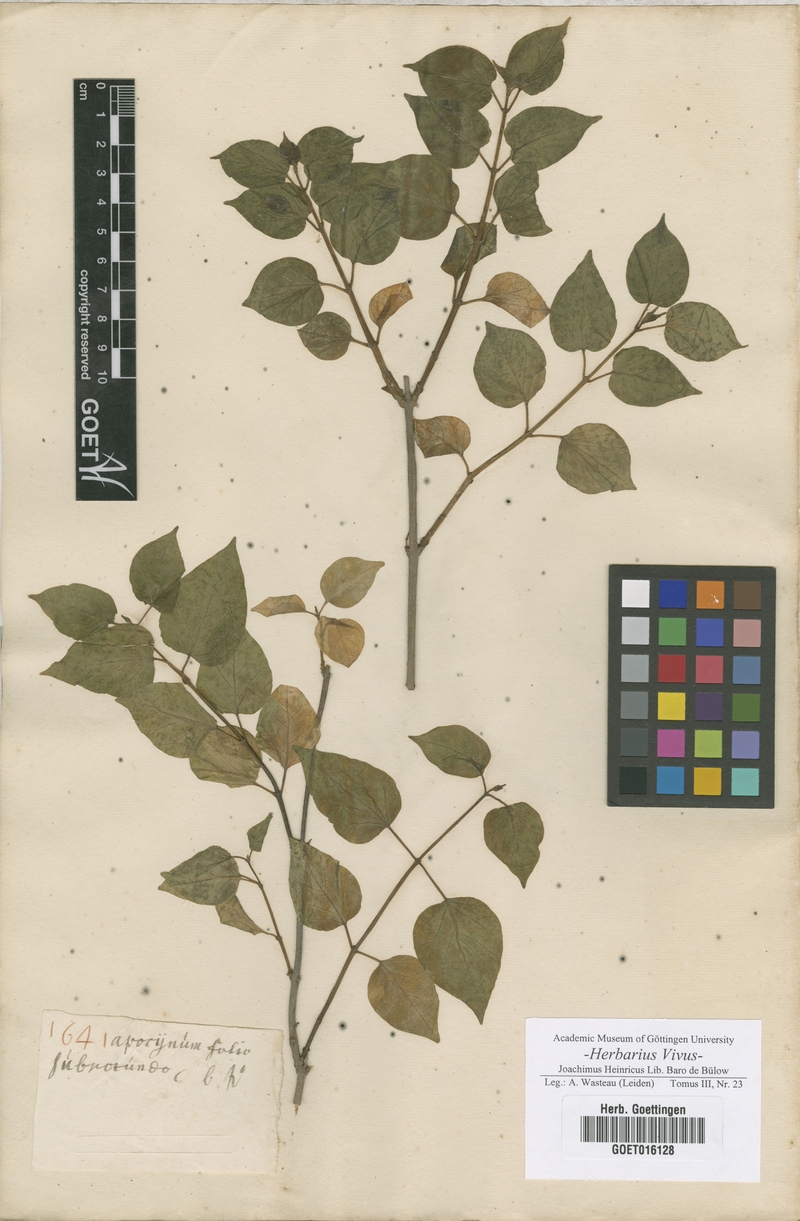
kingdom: Plantae
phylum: Tracheophyta
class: Magnoliopsida
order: Gentianales
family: Apocynaceae
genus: Apocynum
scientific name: Apocynum
